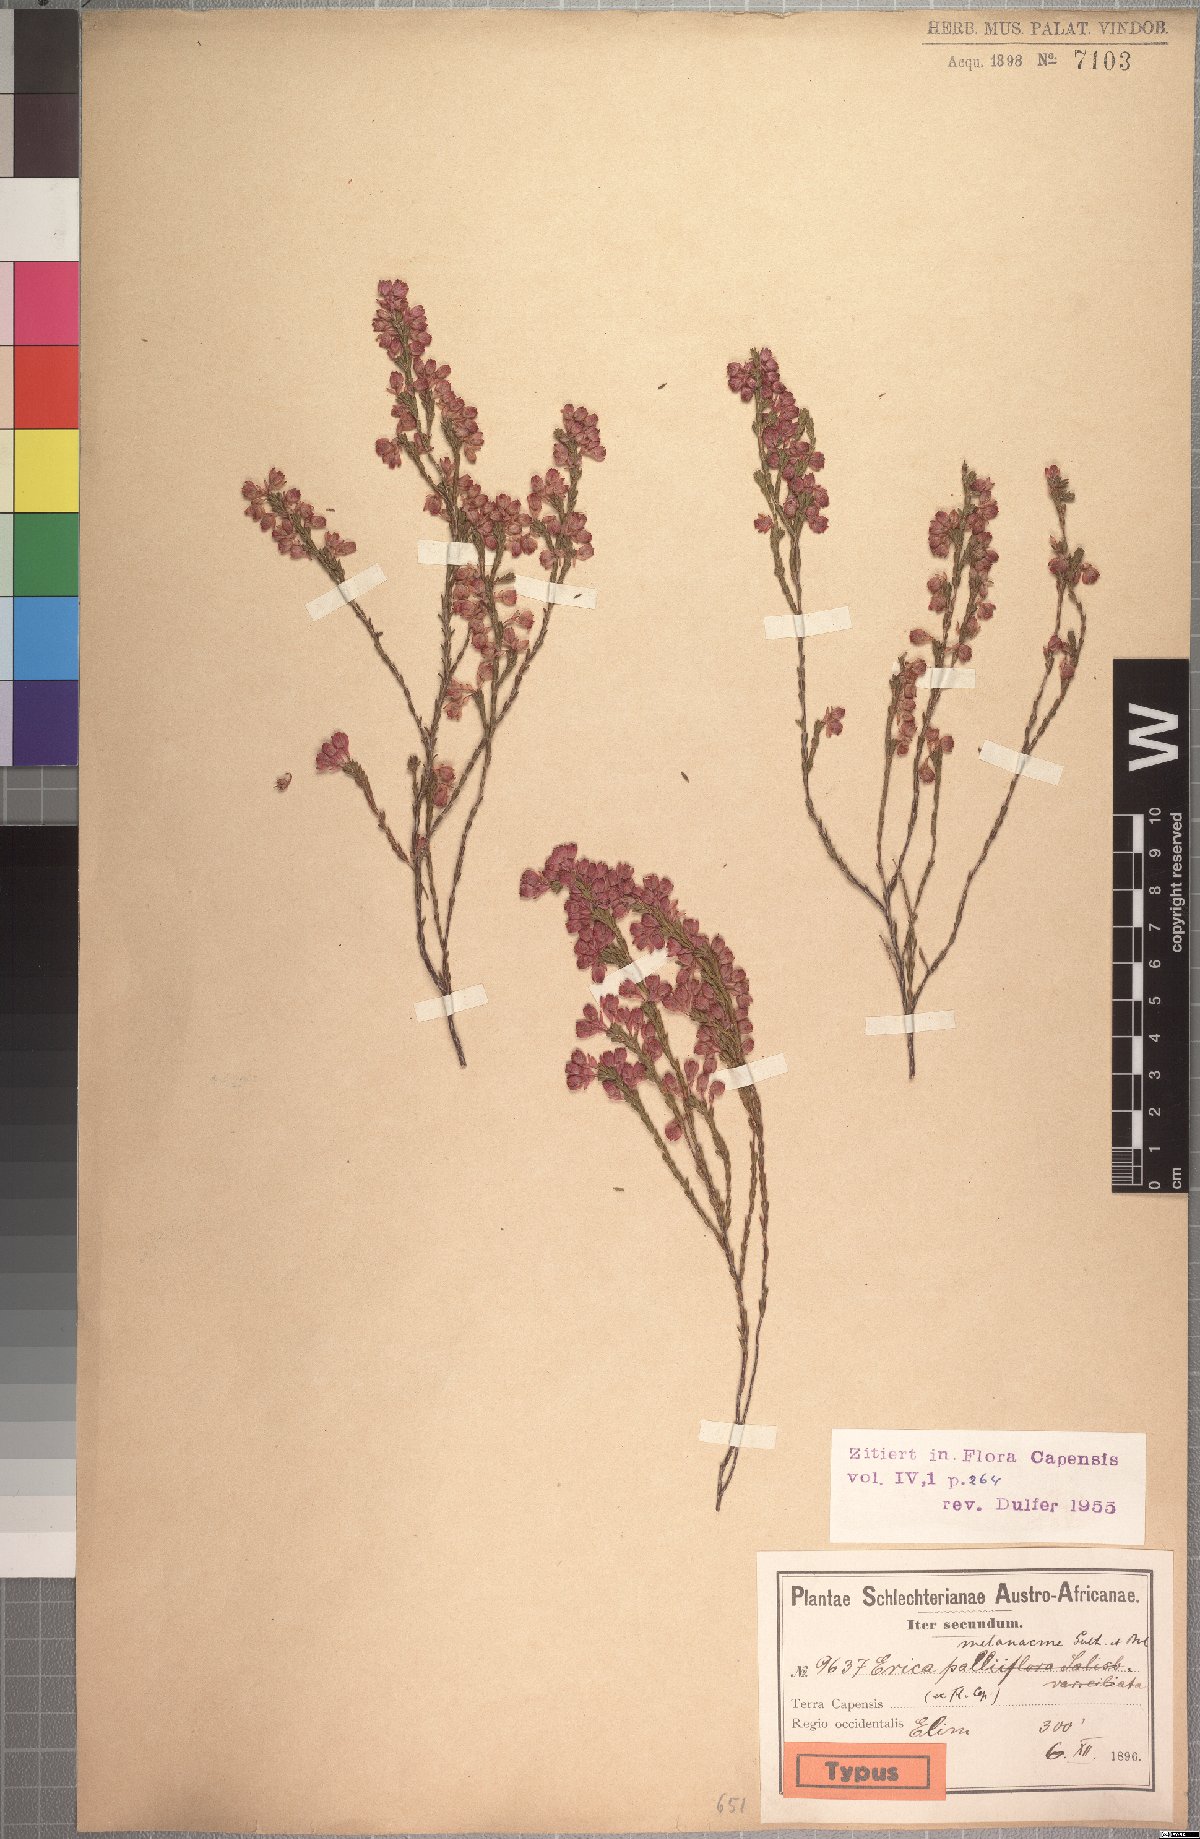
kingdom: Plantae
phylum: Tracheophyta
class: Magnoliopsida
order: Ericales
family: Ericaceae
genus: Erica
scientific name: Erica melanacme
